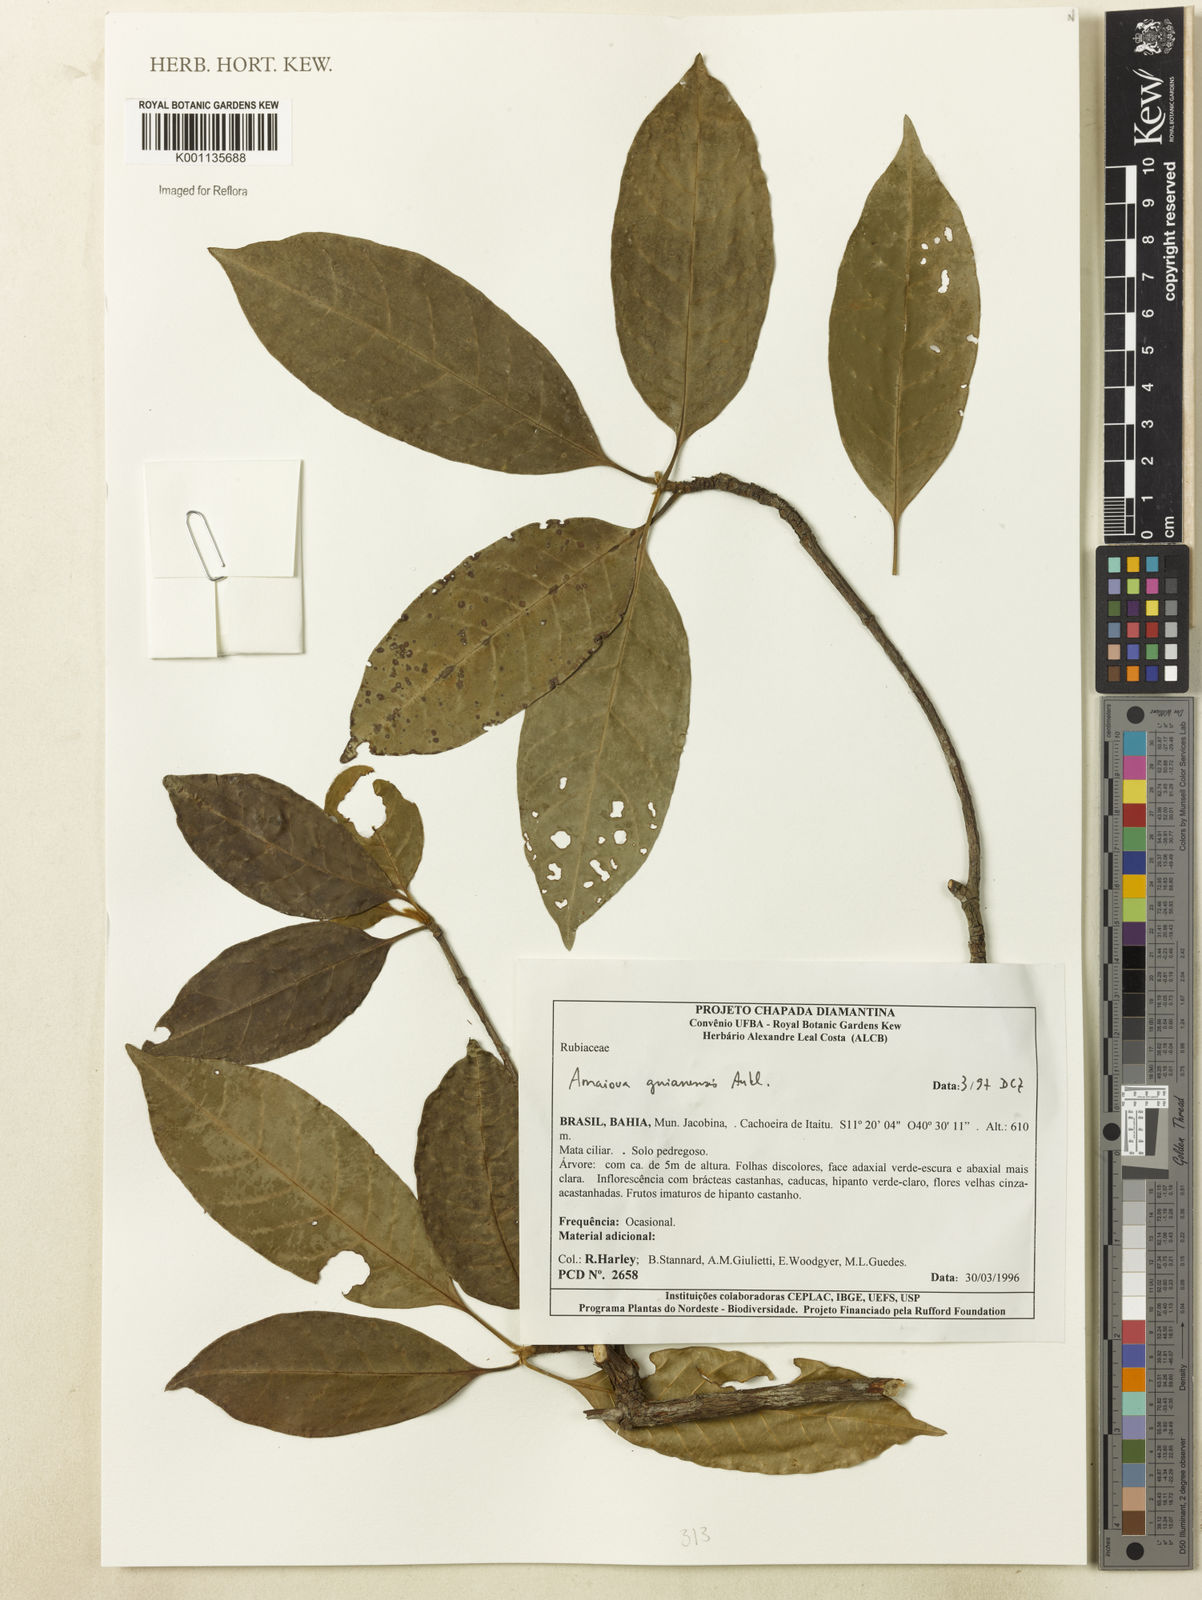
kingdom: Plantae
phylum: Tracheophyta
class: Magnoliopsida
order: Gentianales
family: Rubiaceae
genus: Amaioua
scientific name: Amaioua guianensis
